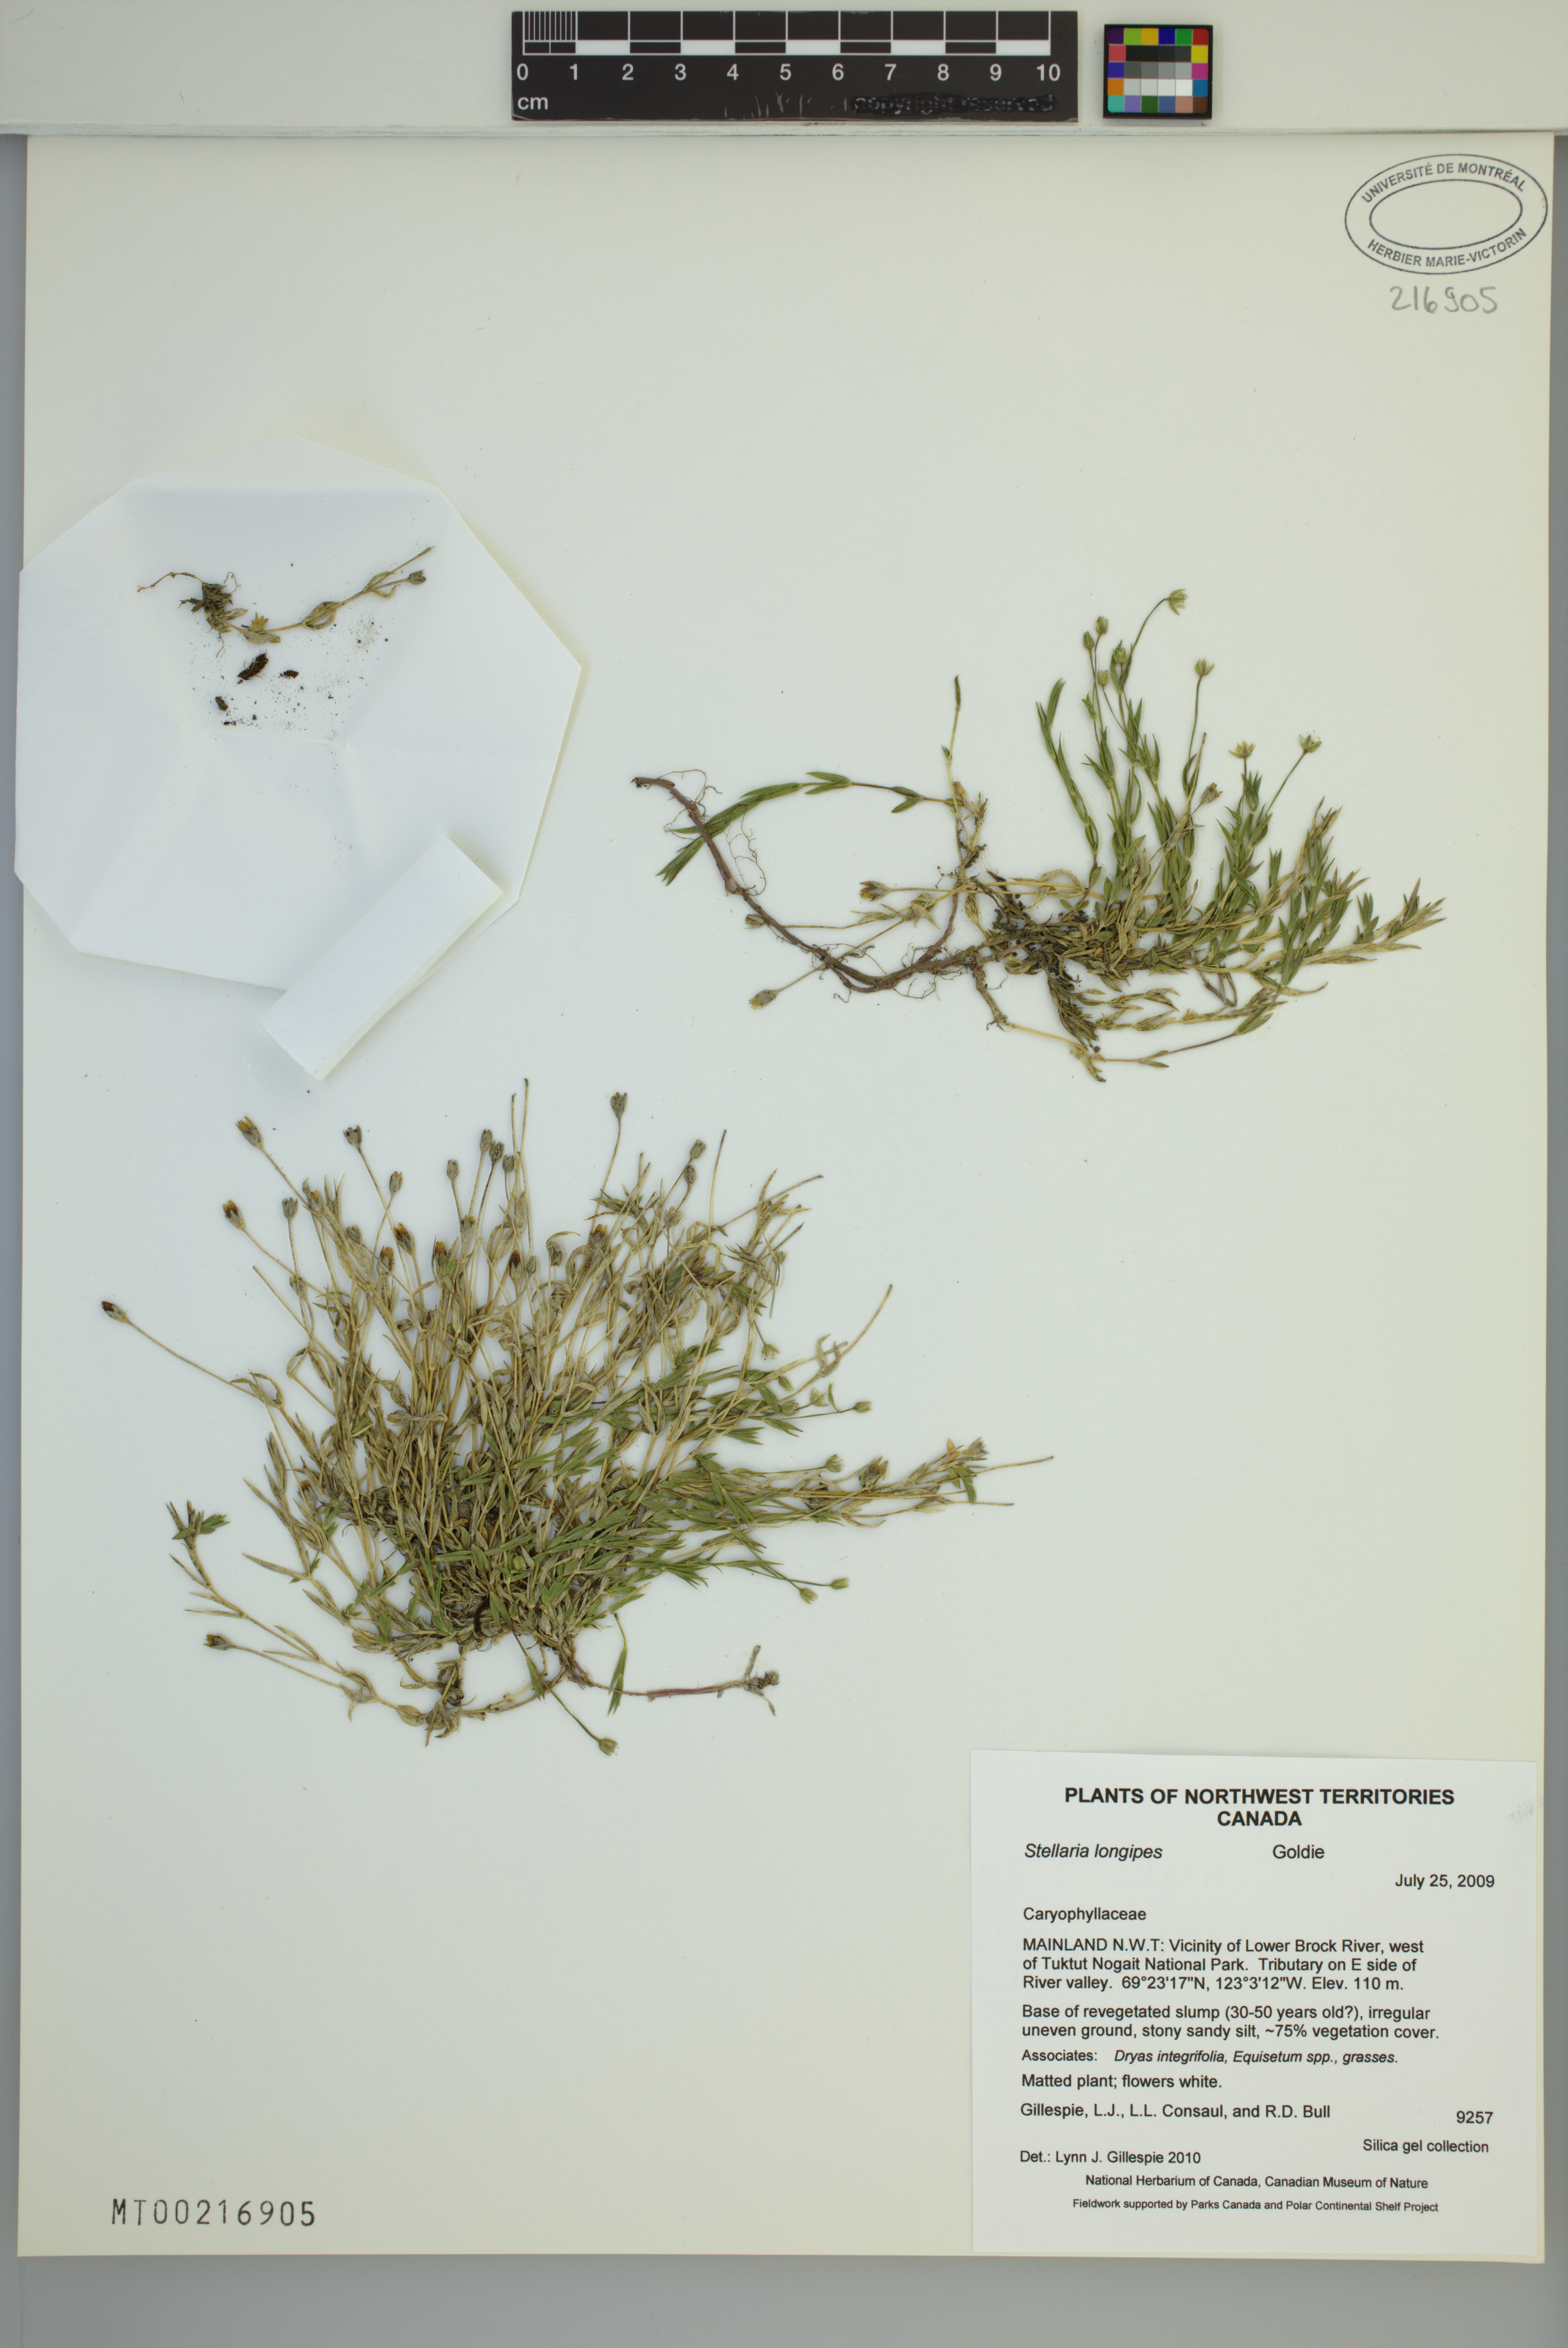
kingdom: Plantae
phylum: Tracheophyta
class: Magnoliopsida
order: Caryophyllales
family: Caryophyllaceae
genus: Stellaria
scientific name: Stellaria longipes
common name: Goldie's starwort
